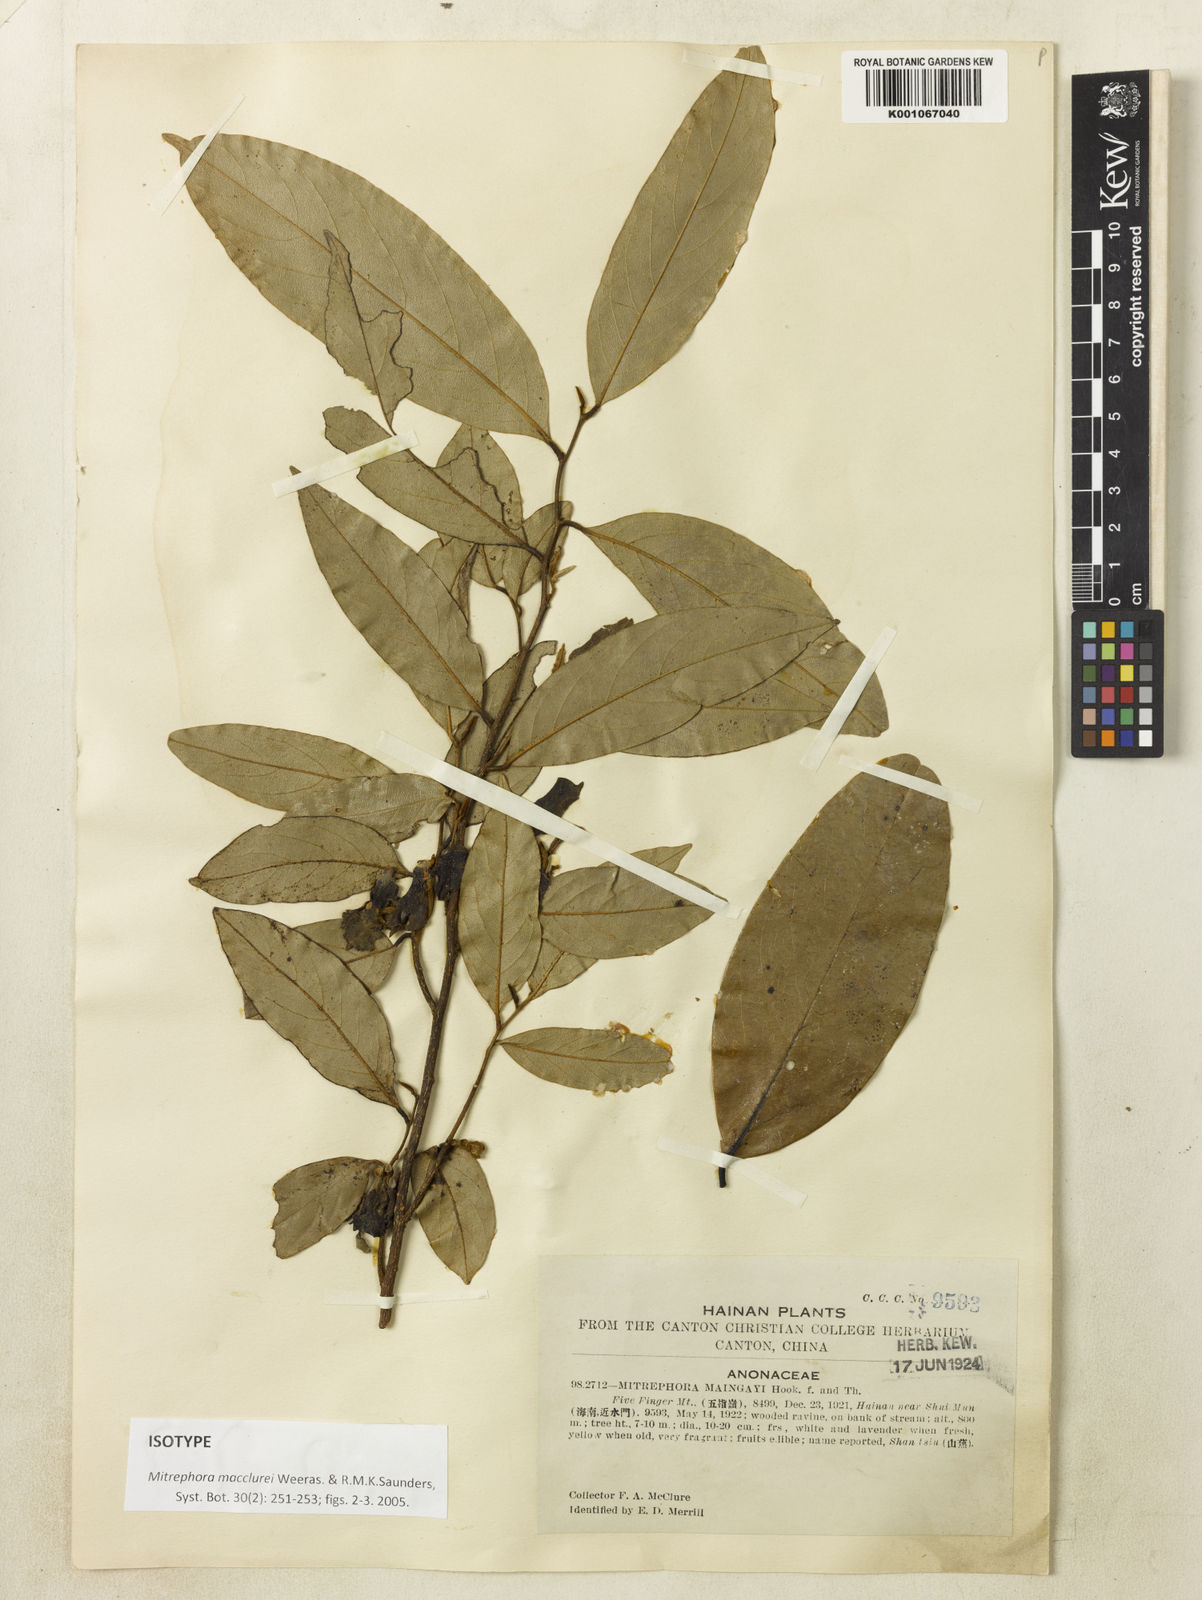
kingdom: Plantae
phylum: Tracheophyta
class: Magnoliopsida
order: Magnoliales
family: Annonaceae
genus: Mitrephora
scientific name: Mitrephora macclurei
